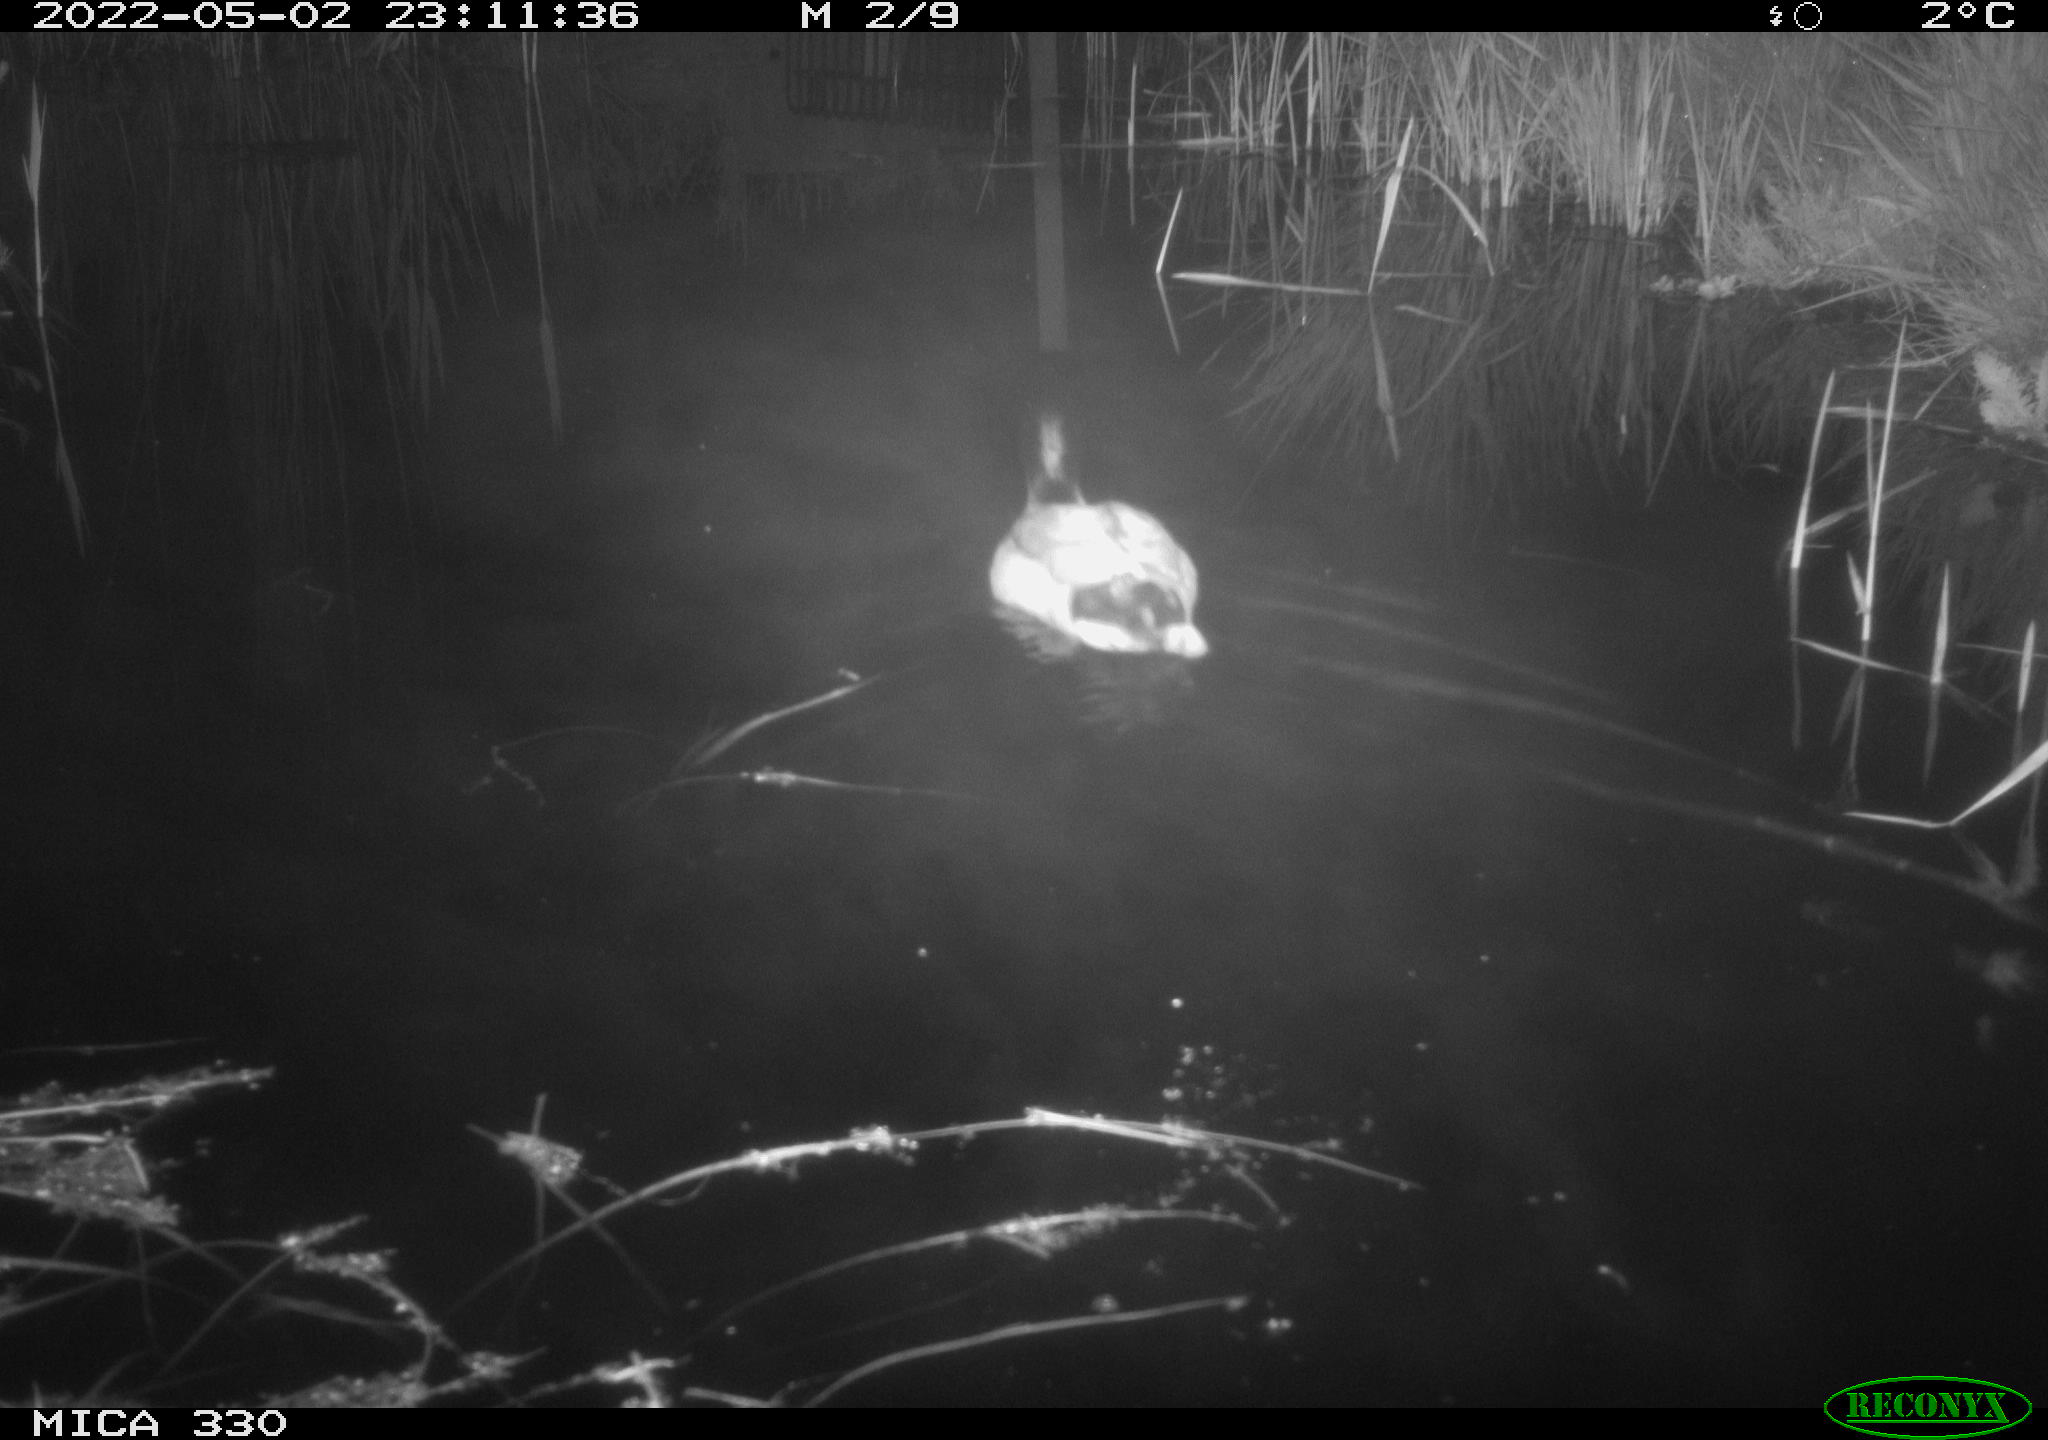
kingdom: Animalia
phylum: Chordata
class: Aves
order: Anseriformes
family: Anatidae
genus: Anas
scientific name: Anas platyrhynchos
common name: Mallard
